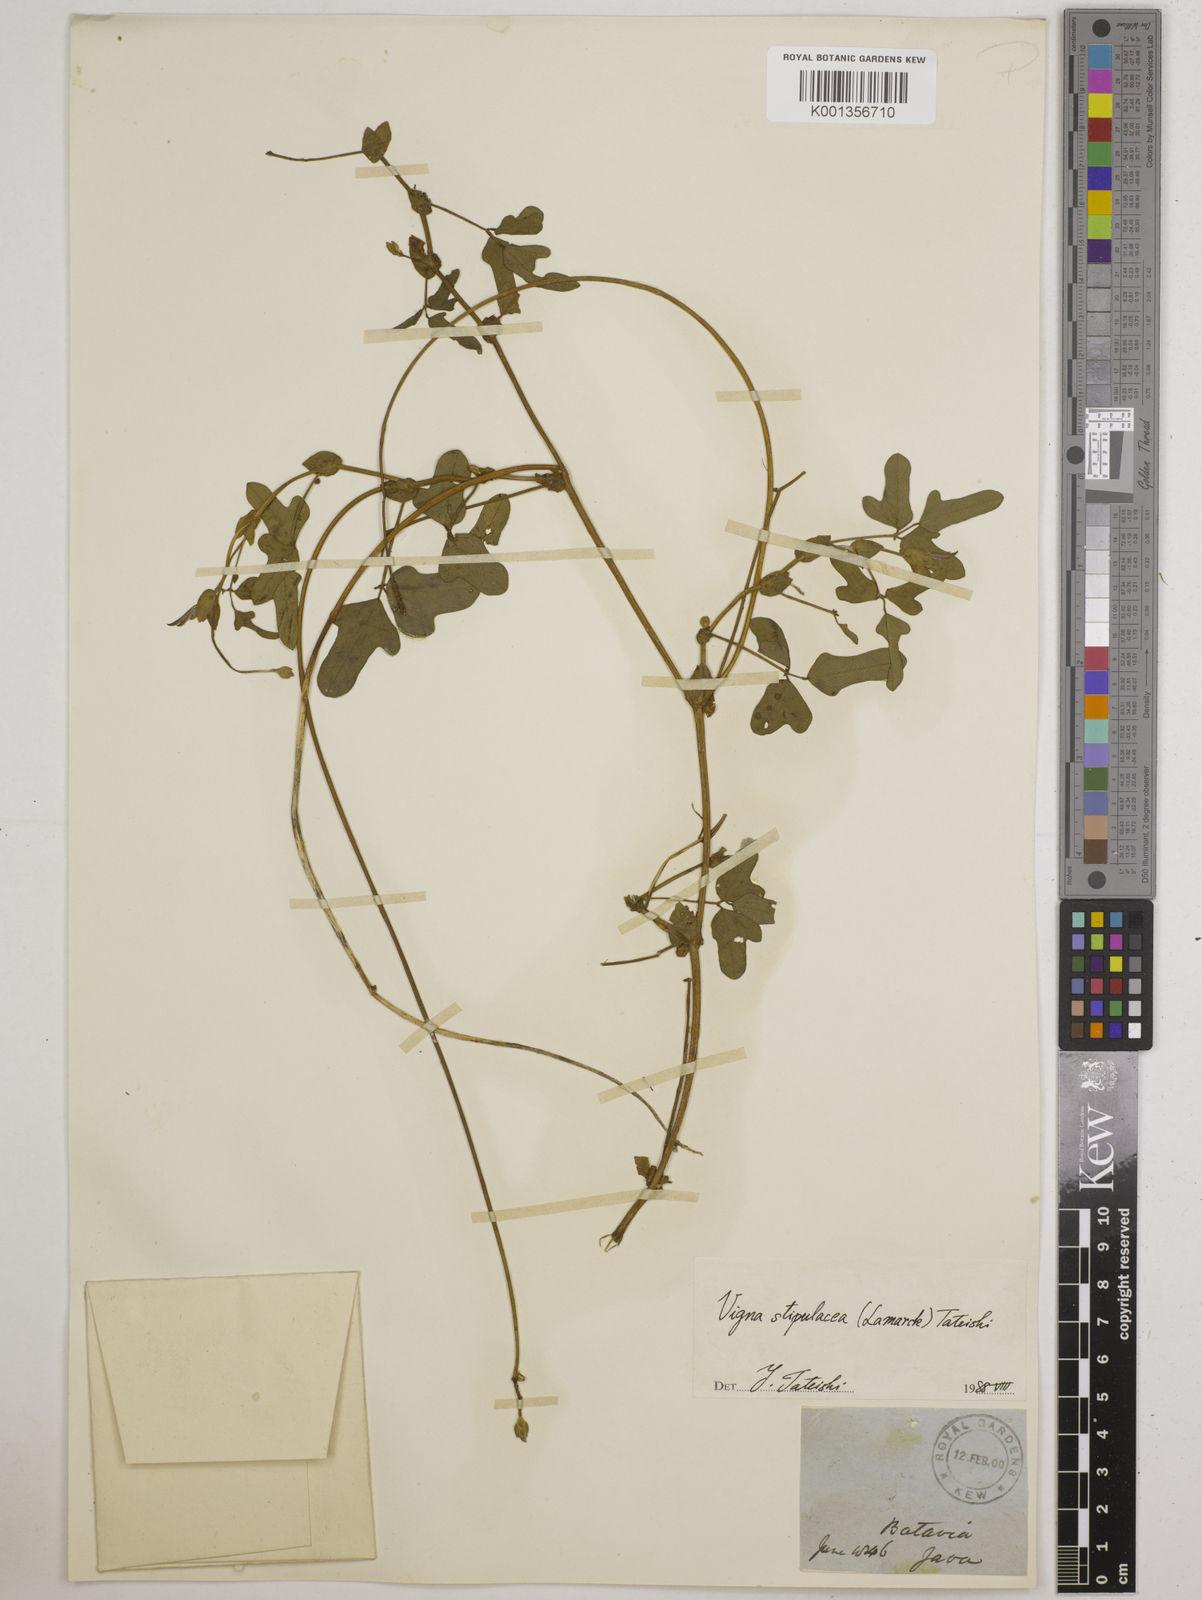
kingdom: Plantae
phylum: Tracheophyta
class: Magnoliopsida
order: Fabales
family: Fabaceae
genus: Pueraria
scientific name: Pueraria montana
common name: Kudzu
